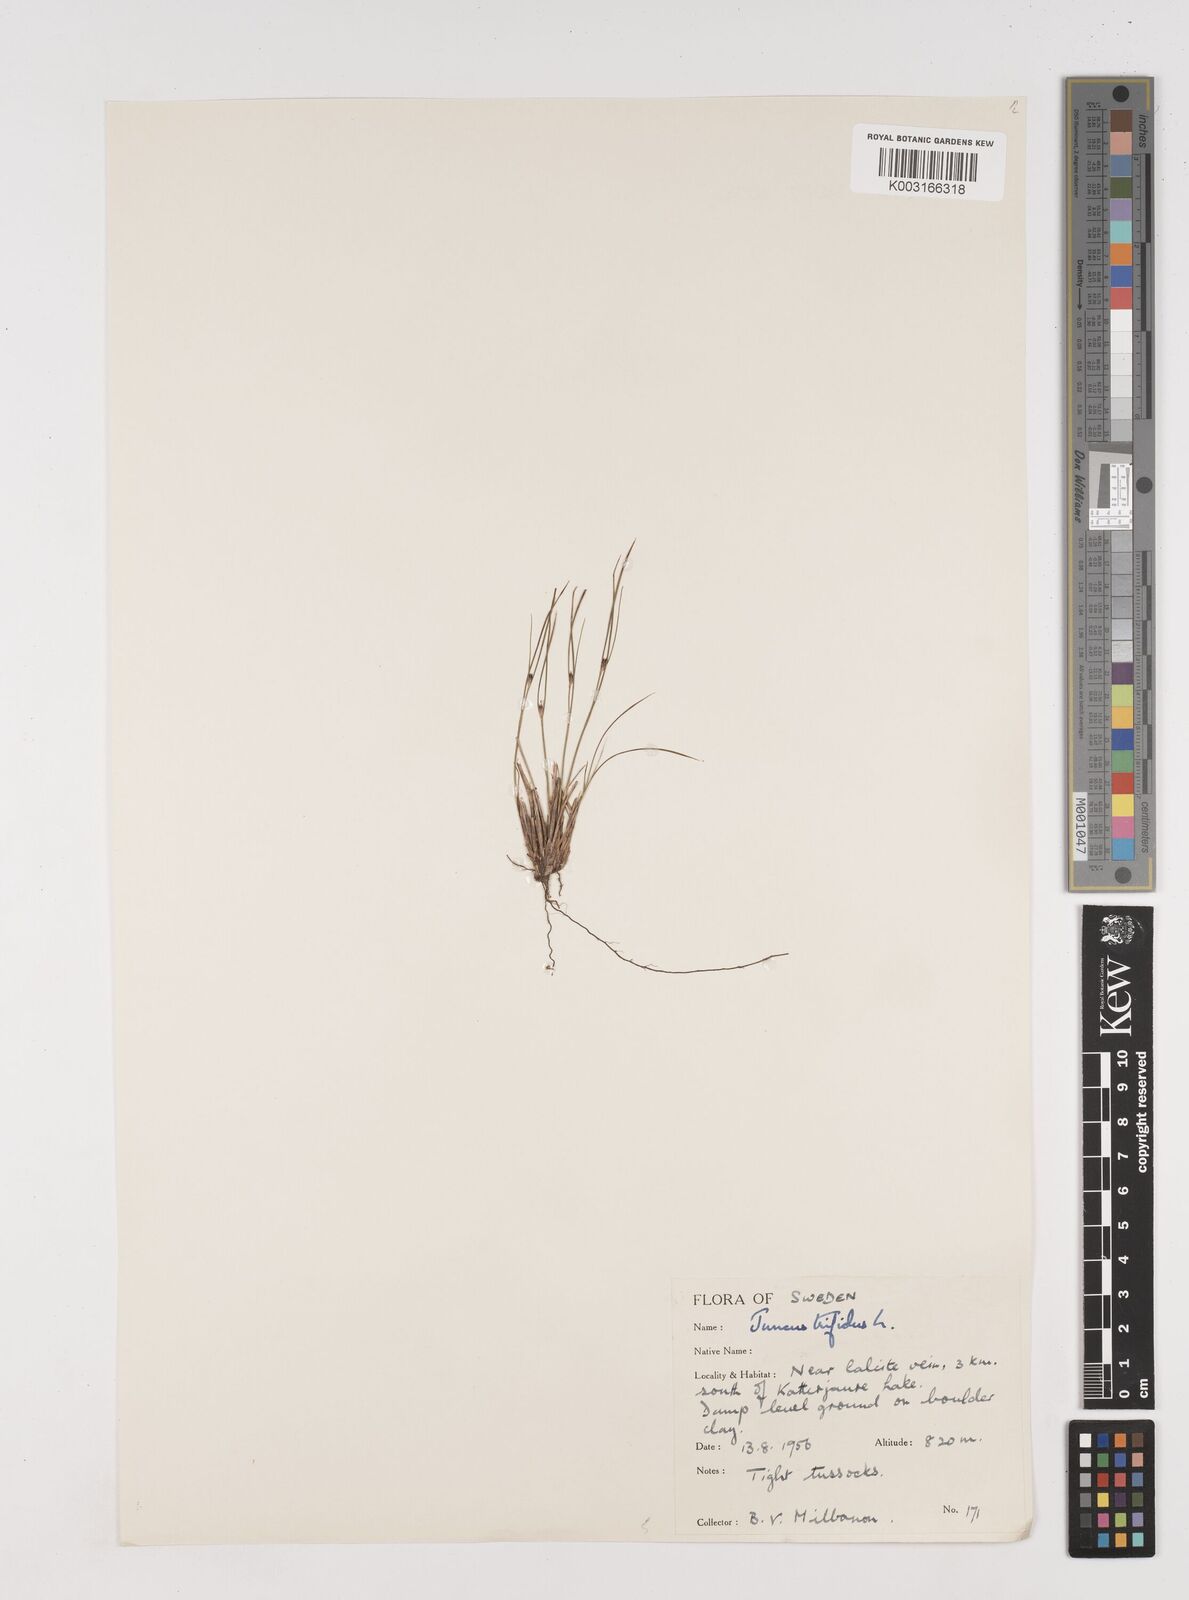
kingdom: Plantae
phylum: Tracheophyta
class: Liliopsida
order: Poales
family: Juncaceae
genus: Oreojuncus
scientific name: Oreojuncus trifidus
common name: Highland rush
